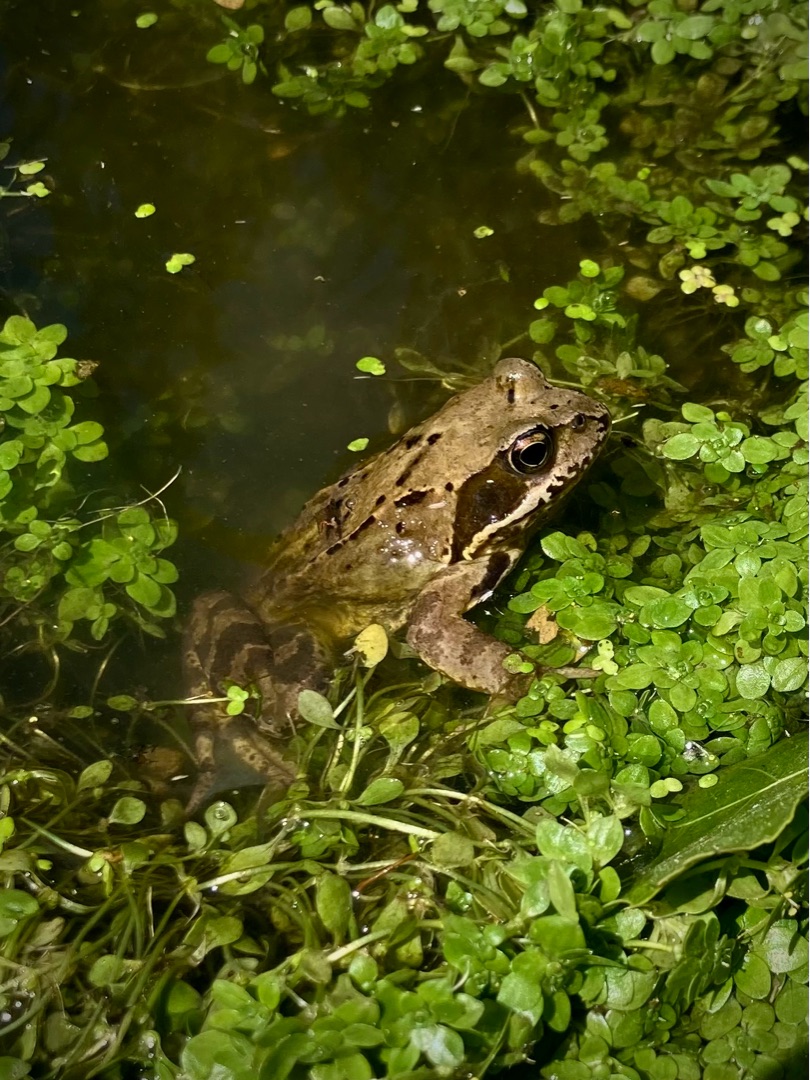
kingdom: Animalia
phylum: Chordata
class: Amphibia
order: Anura
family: Ranidae
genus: Rana
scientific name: Rana temporaria
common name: Butsnudet frø
